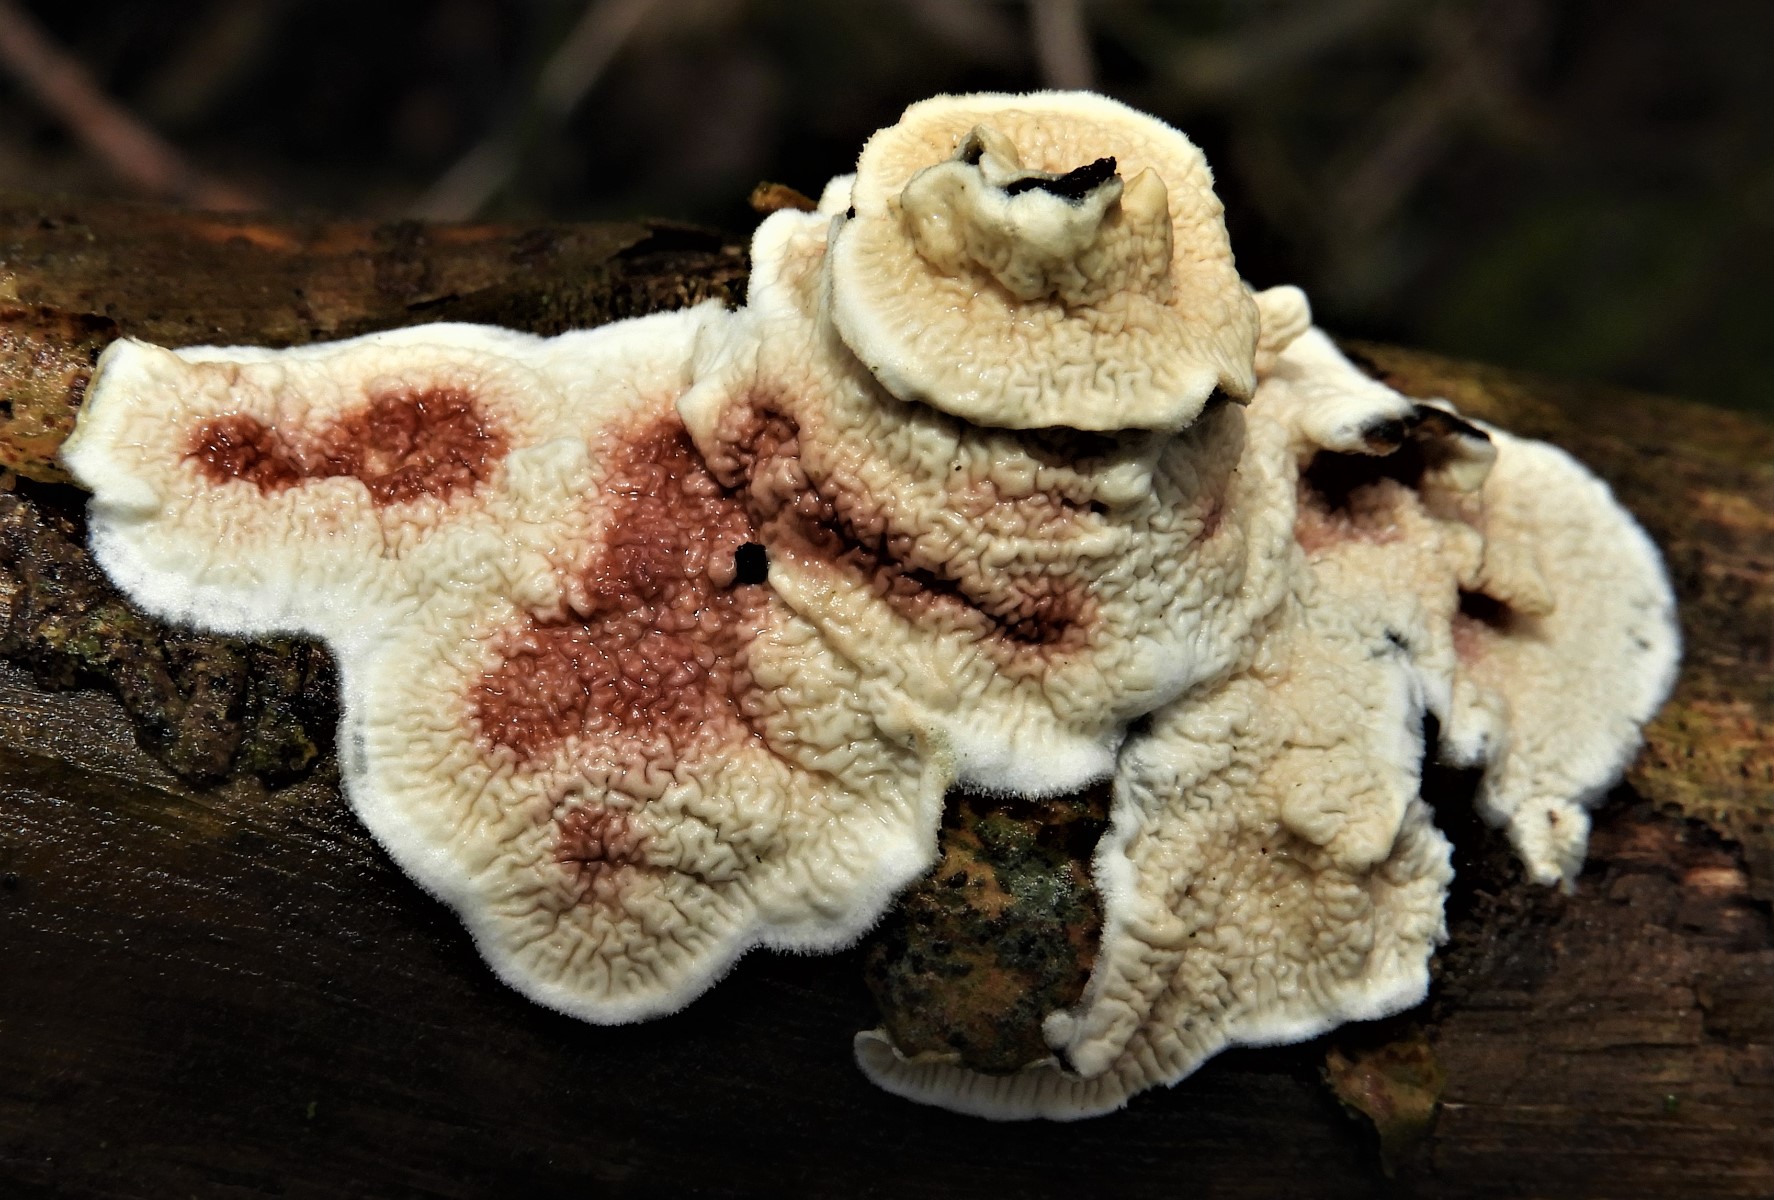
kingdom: Fungi
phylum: Basidiomycota
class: Agaricomycetes
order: Polyporales
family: Irpicaceae
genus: Byssomerulius
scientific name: Byssomerulius corium
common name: læder-åresvamp
